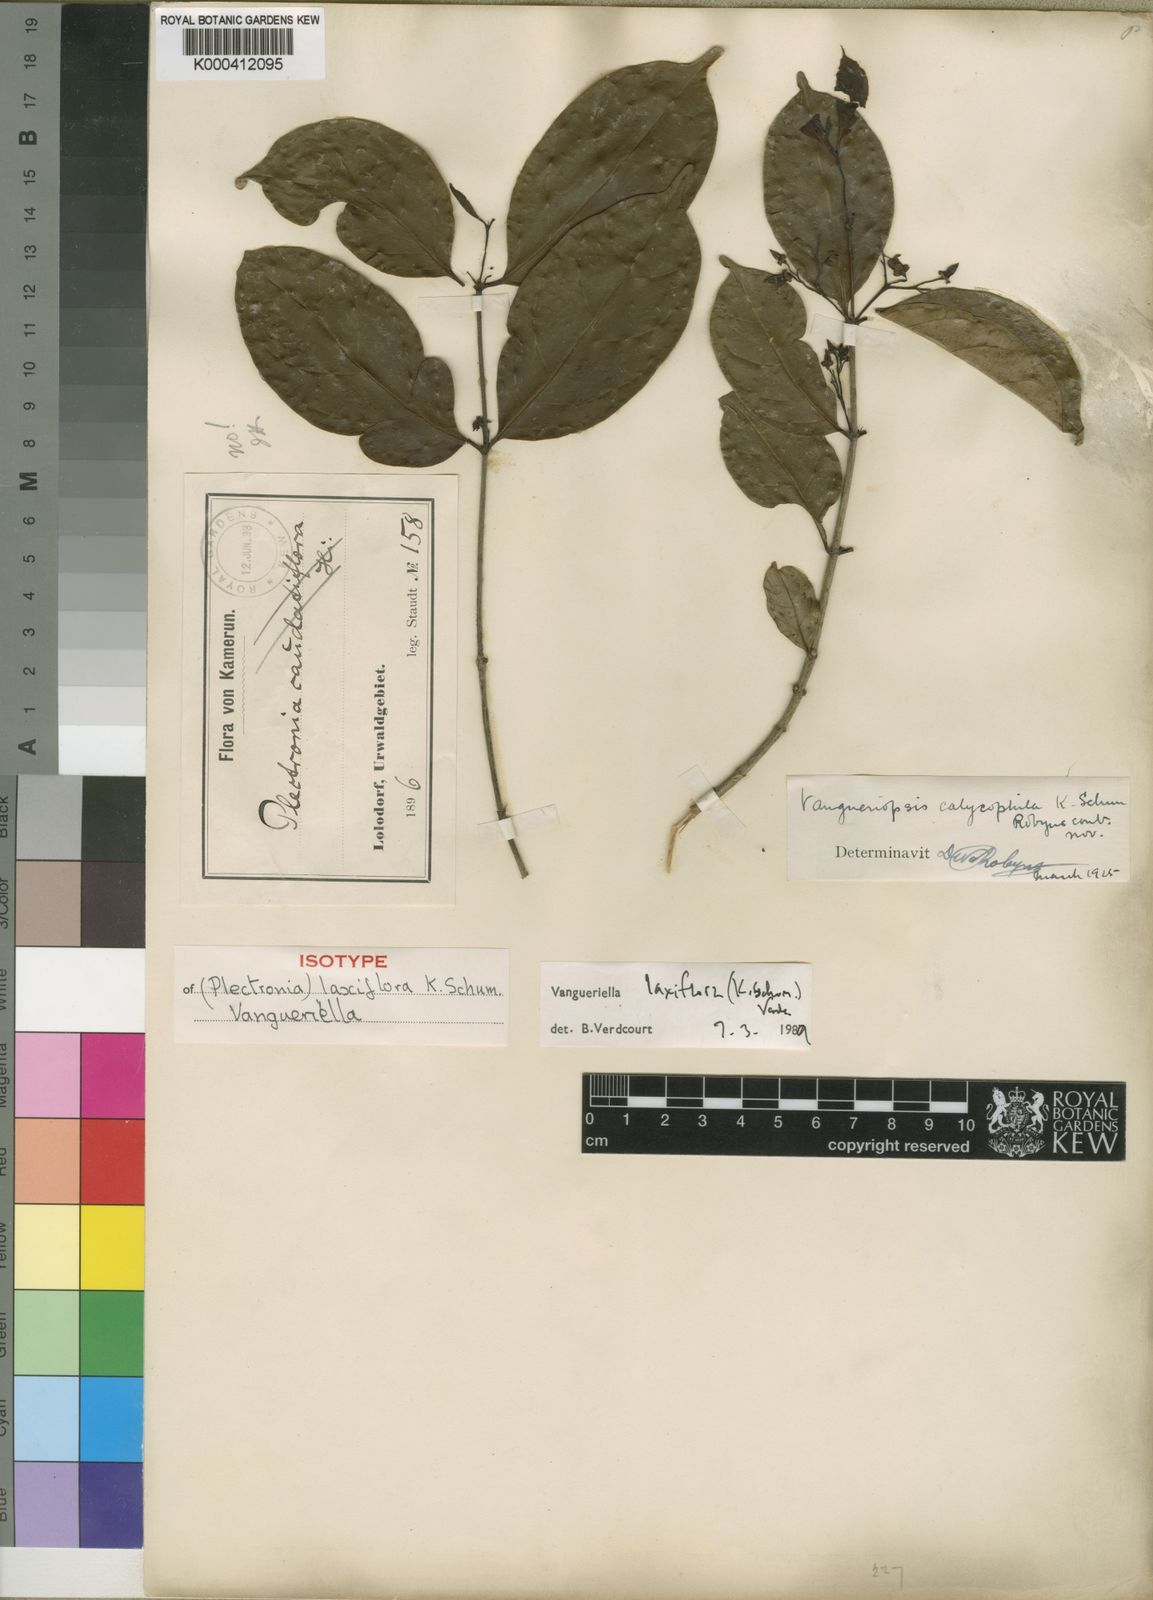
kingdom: Plantae
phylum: Tracheophyta
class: Magnoliopsida
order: Gentianales
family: Rubiaceae
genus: Vangueriella
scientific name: Vangueriella laxiflora
